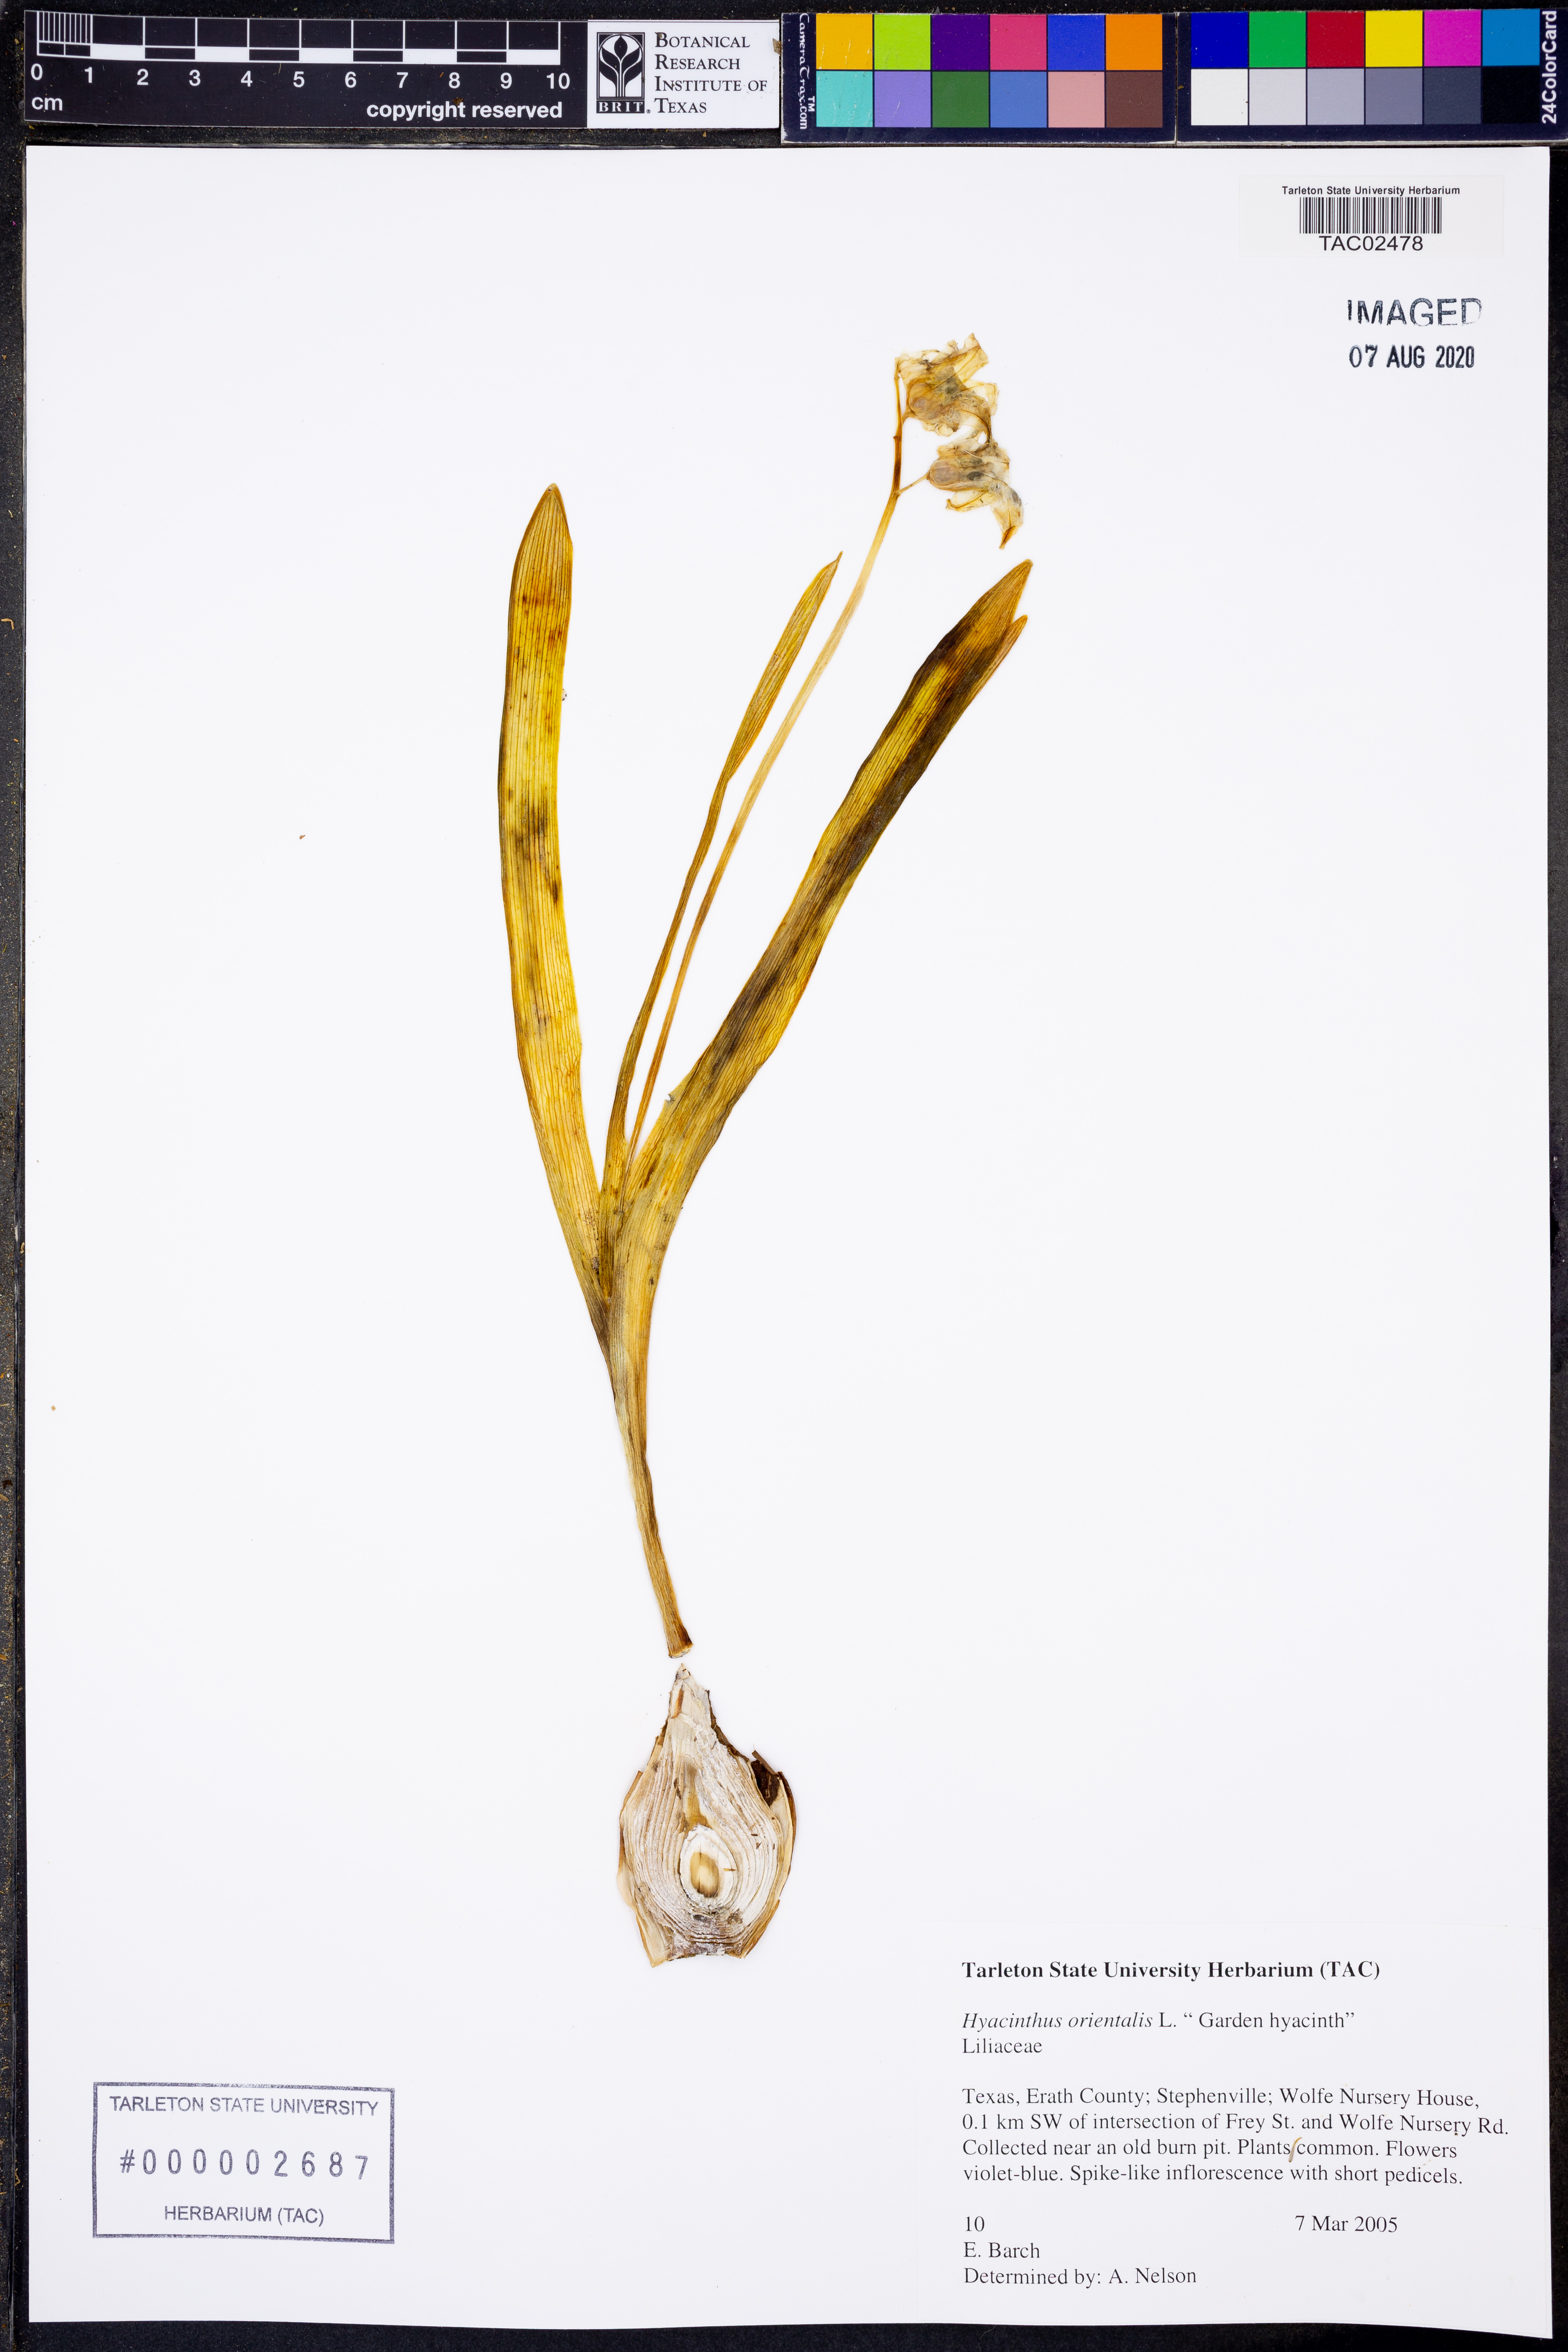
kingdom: Plantae
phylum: Tracheophyta
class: Liliopsida
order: Asparagales
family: Asparagaceae
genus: Hyacinthus
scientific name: Hyacinthus orientalis
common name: Hyacinth
